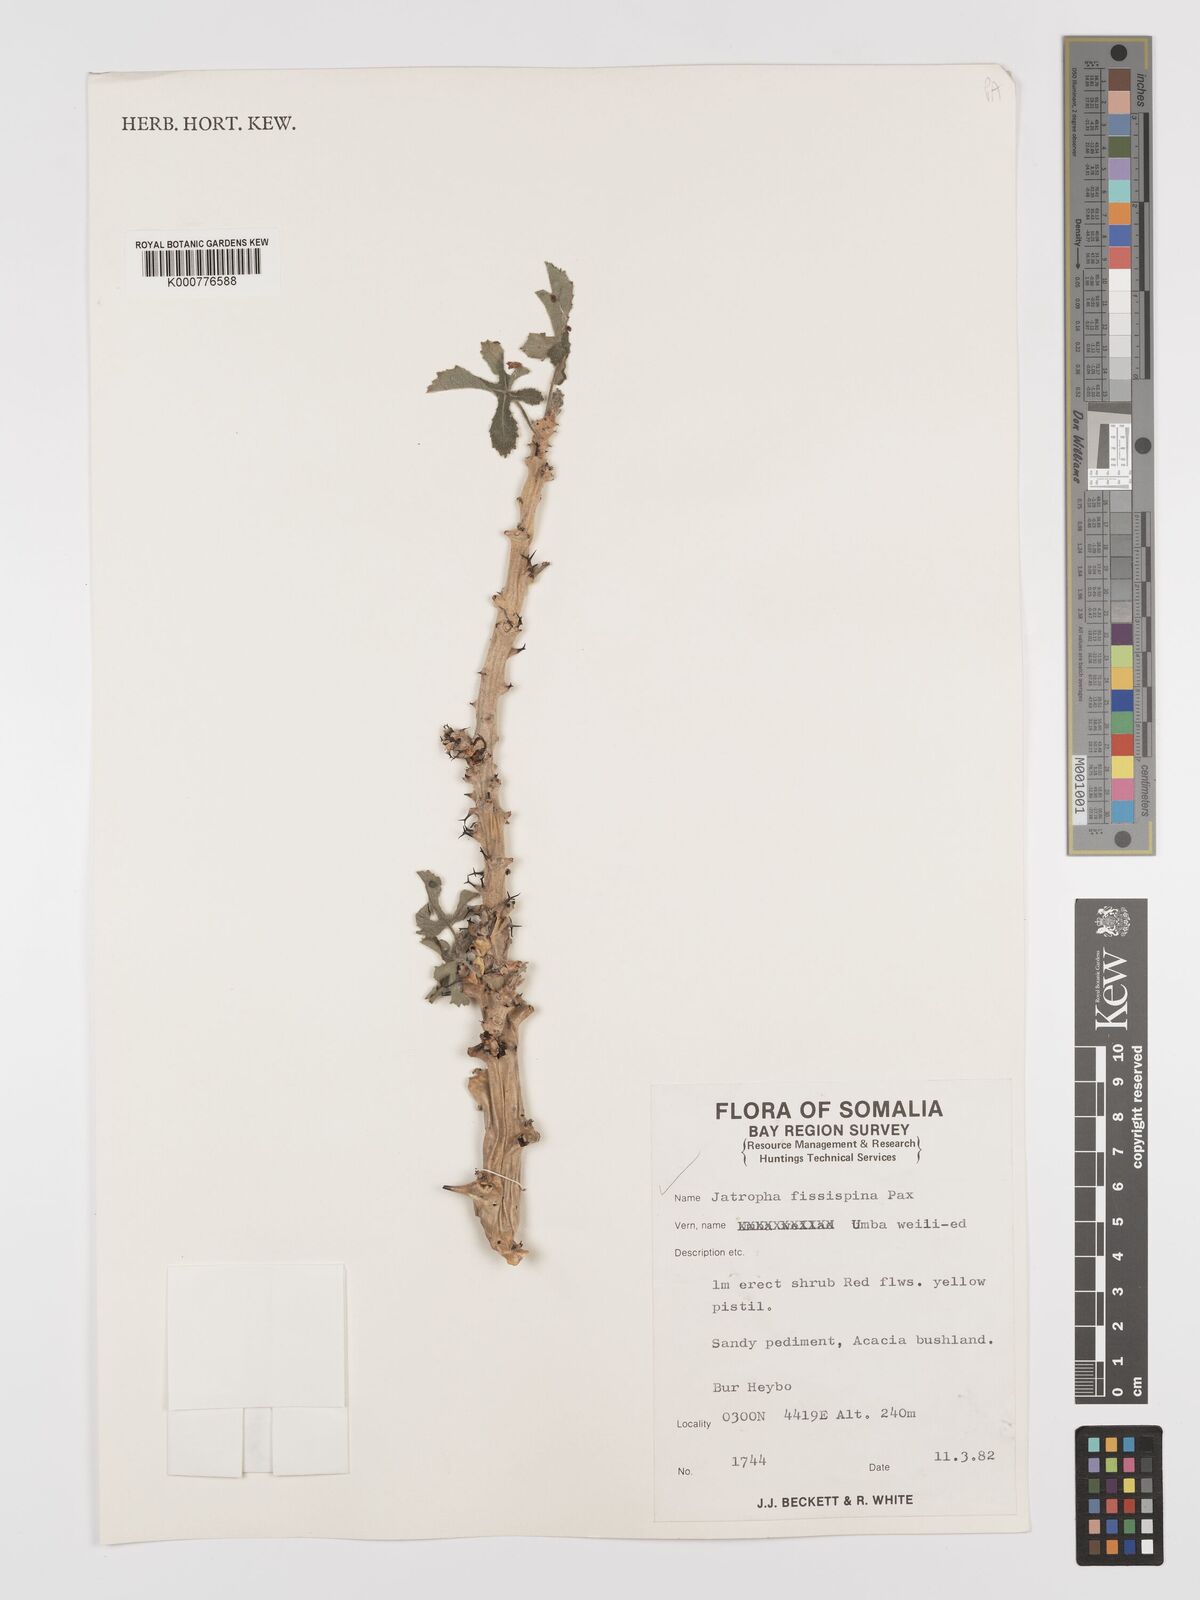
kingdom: Plantae
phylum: Tracheophyta
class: Magnoliopsida
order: Malpighiales
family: Euphorbiaceae
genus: Jatropha
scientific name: Jatropha ellenbeckii
